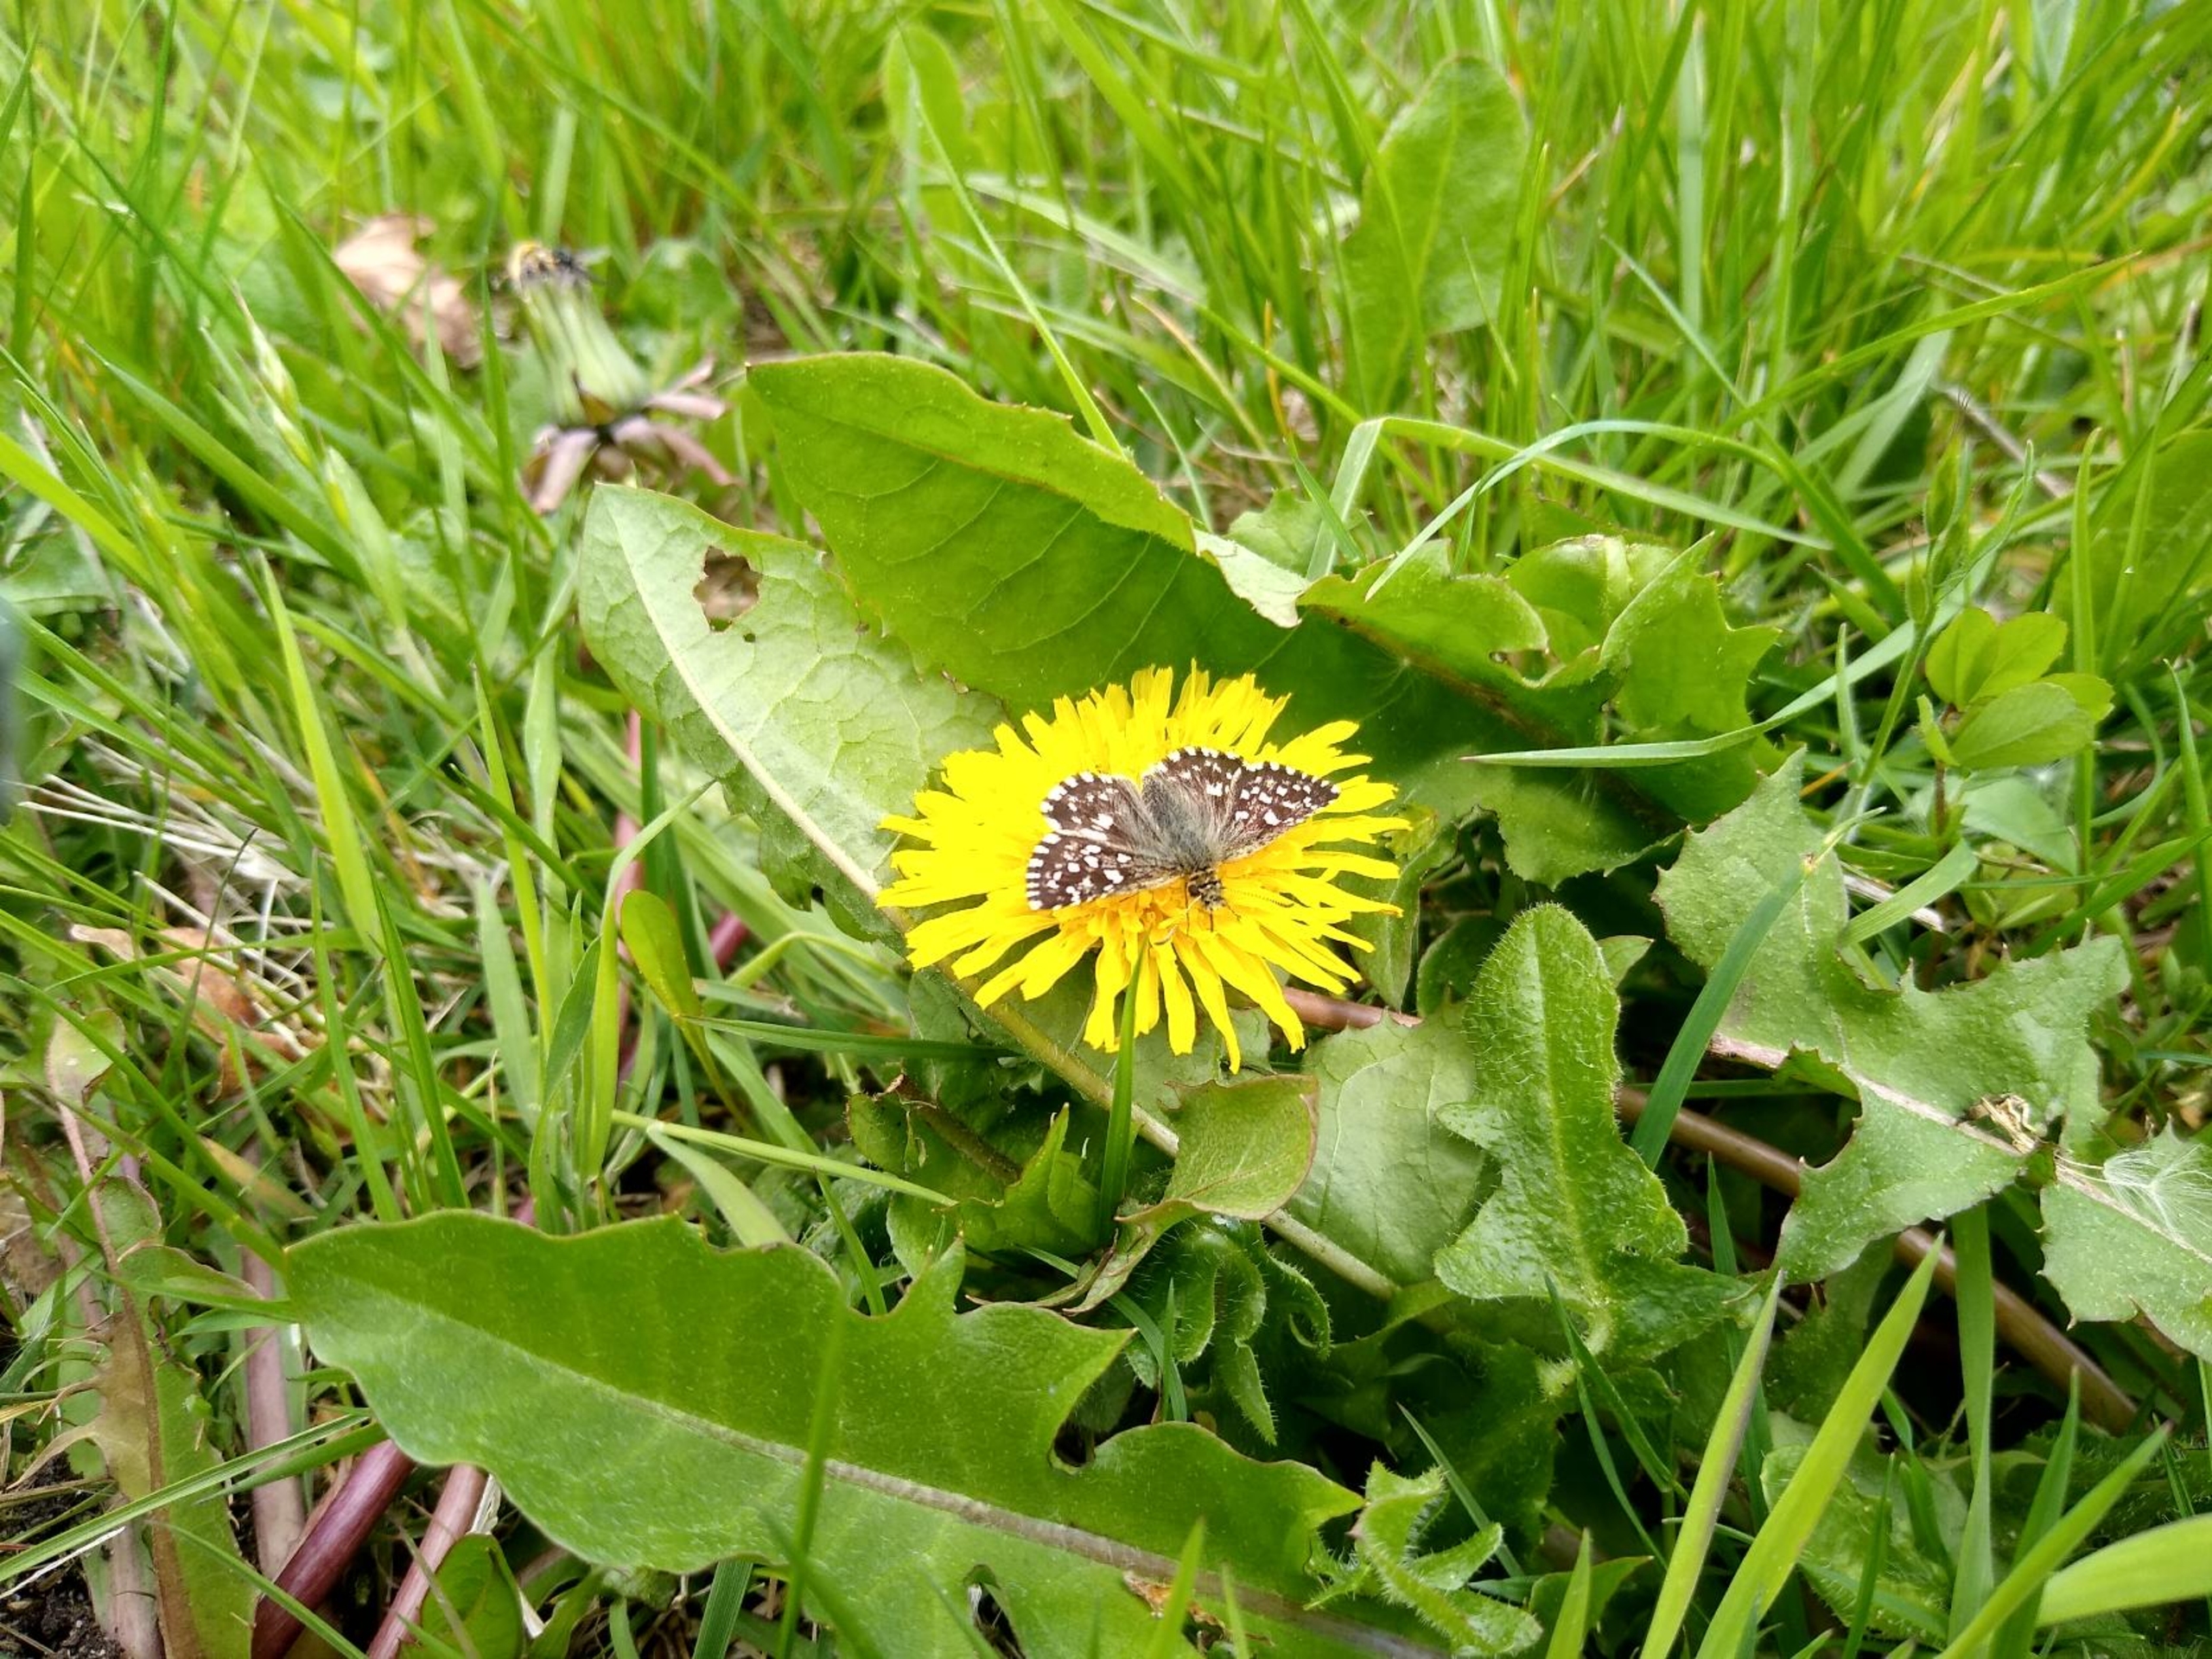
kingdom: Animalia
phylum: Arthropoda
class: Insecta
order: Lepidoptera
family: Hesperiidae
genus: Pyrgus
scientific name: Pyrgus malvae
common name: Spættet bredpande
